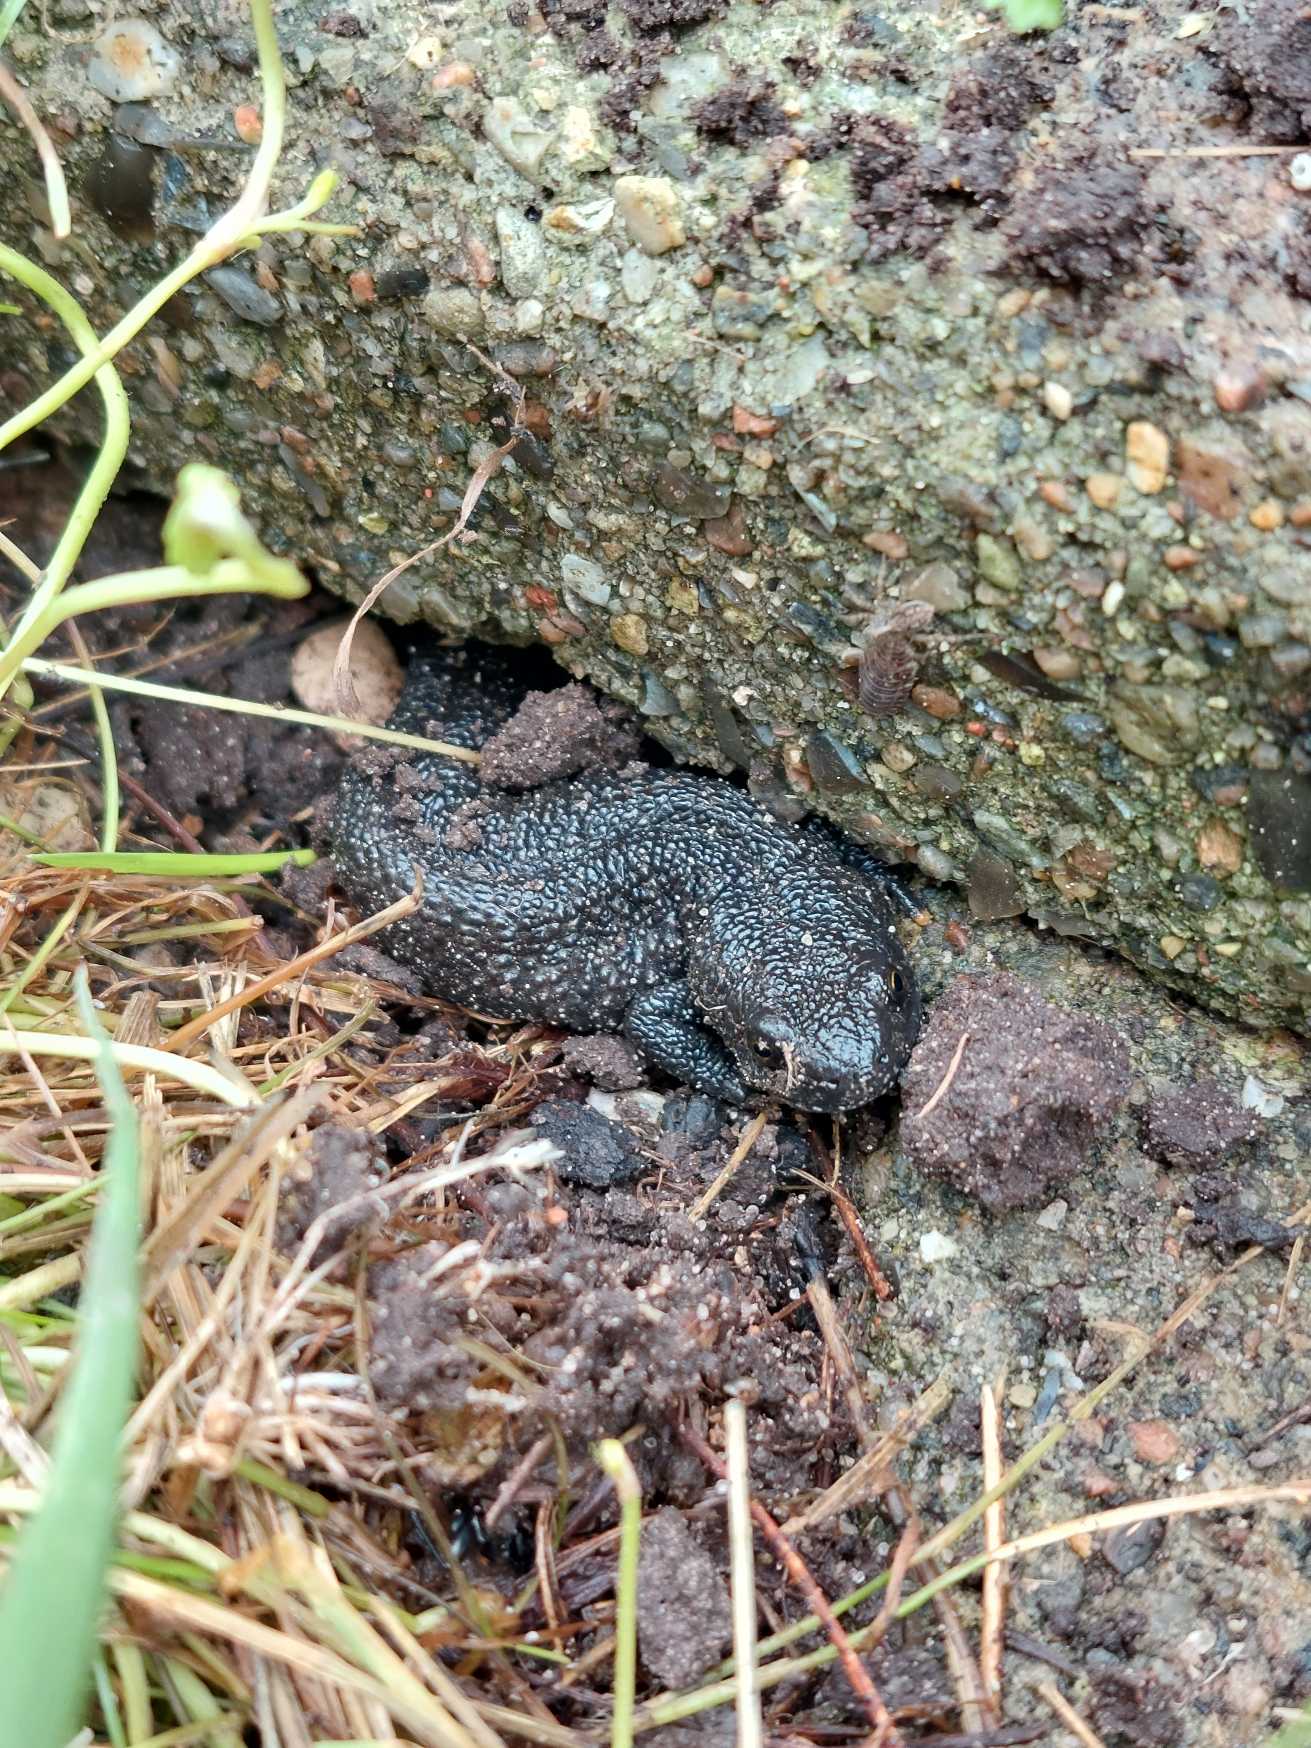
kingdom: Animalia
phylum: Chordata
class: Amphibia
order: Caudata
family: Salamandridae
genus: Triturus
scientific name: Triturus cristatus
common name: Stor vandsalamander
